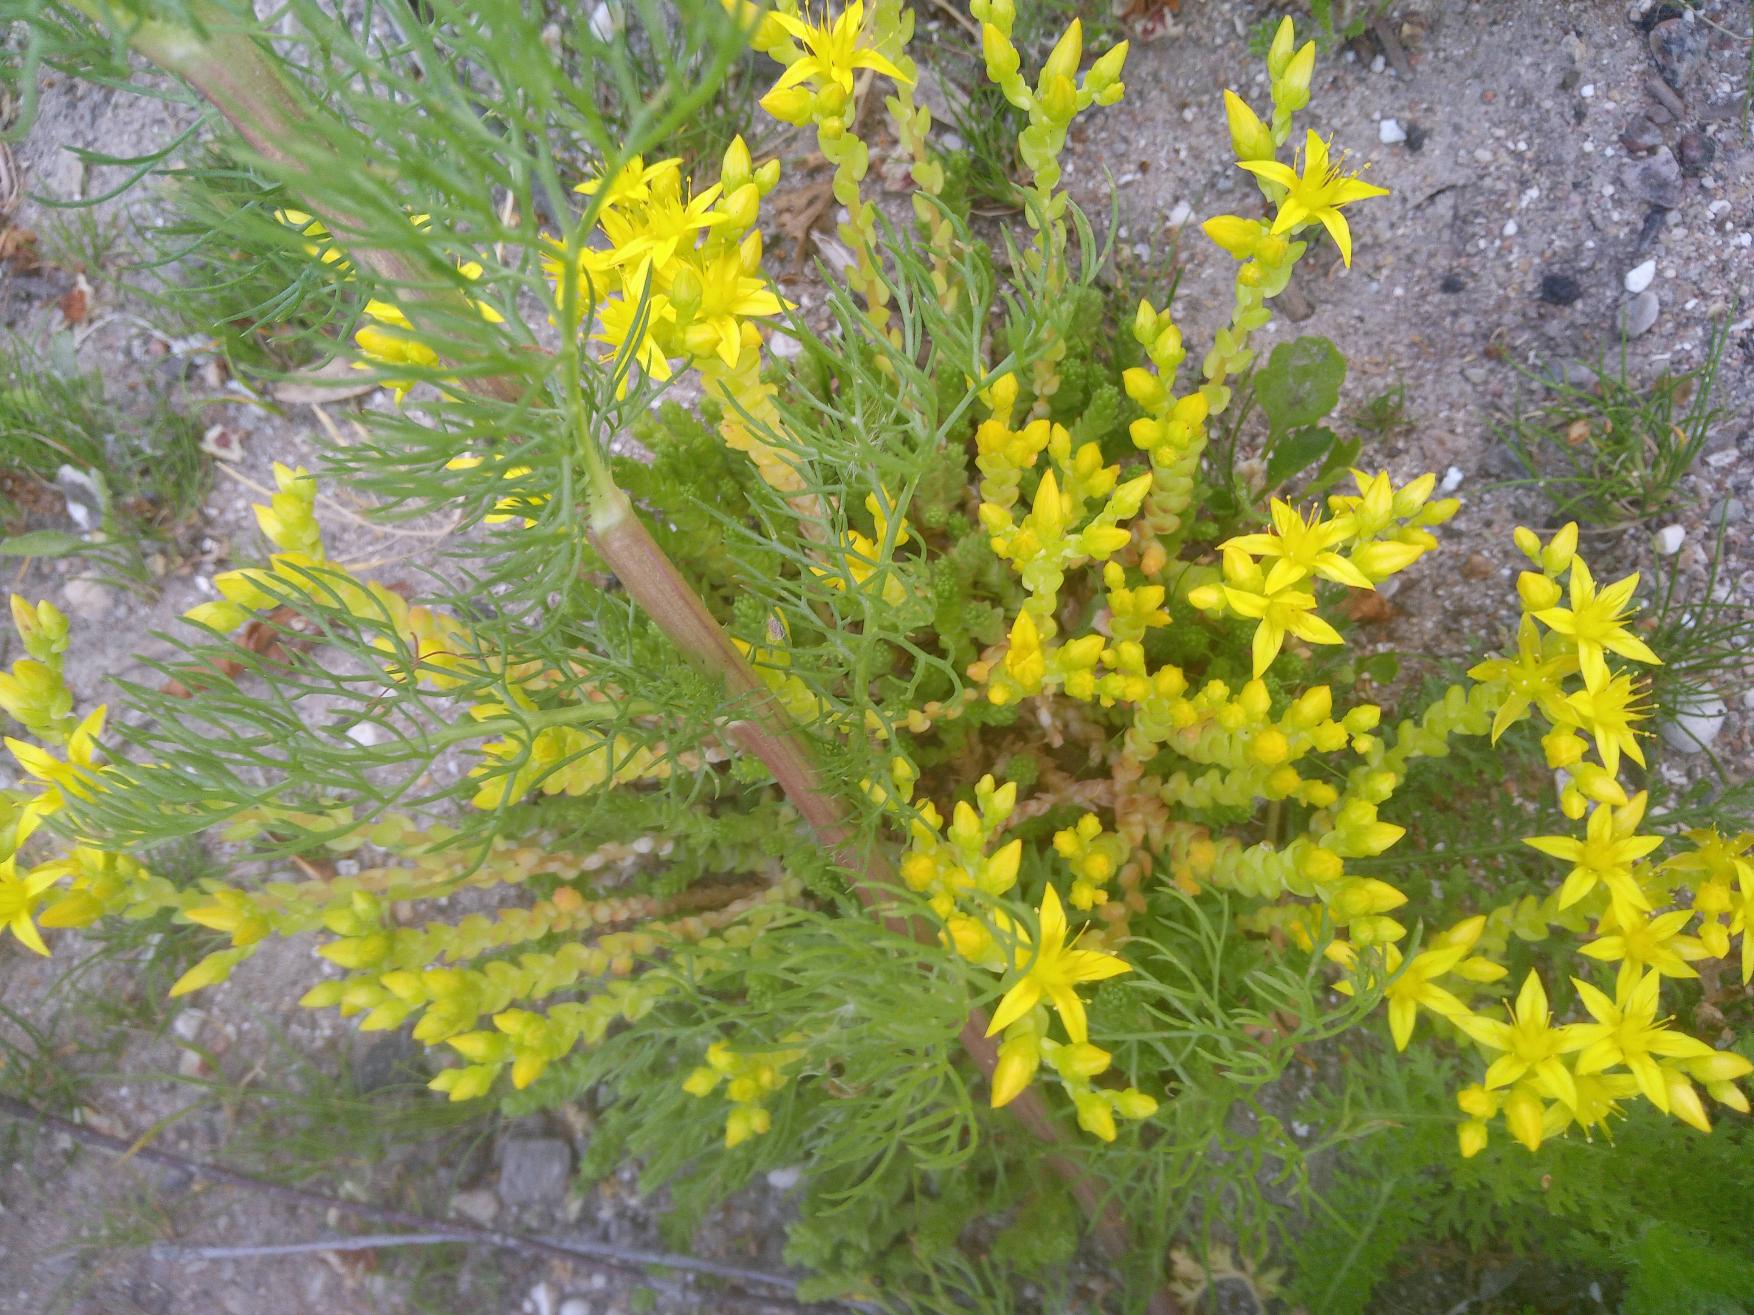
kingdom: Plantae
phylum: Tracheophyta
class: Magnoliopsida
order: Saxifragales
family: Crassulaceae
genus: Sedum
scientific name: Sedum acre
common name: Bidende stenurt
